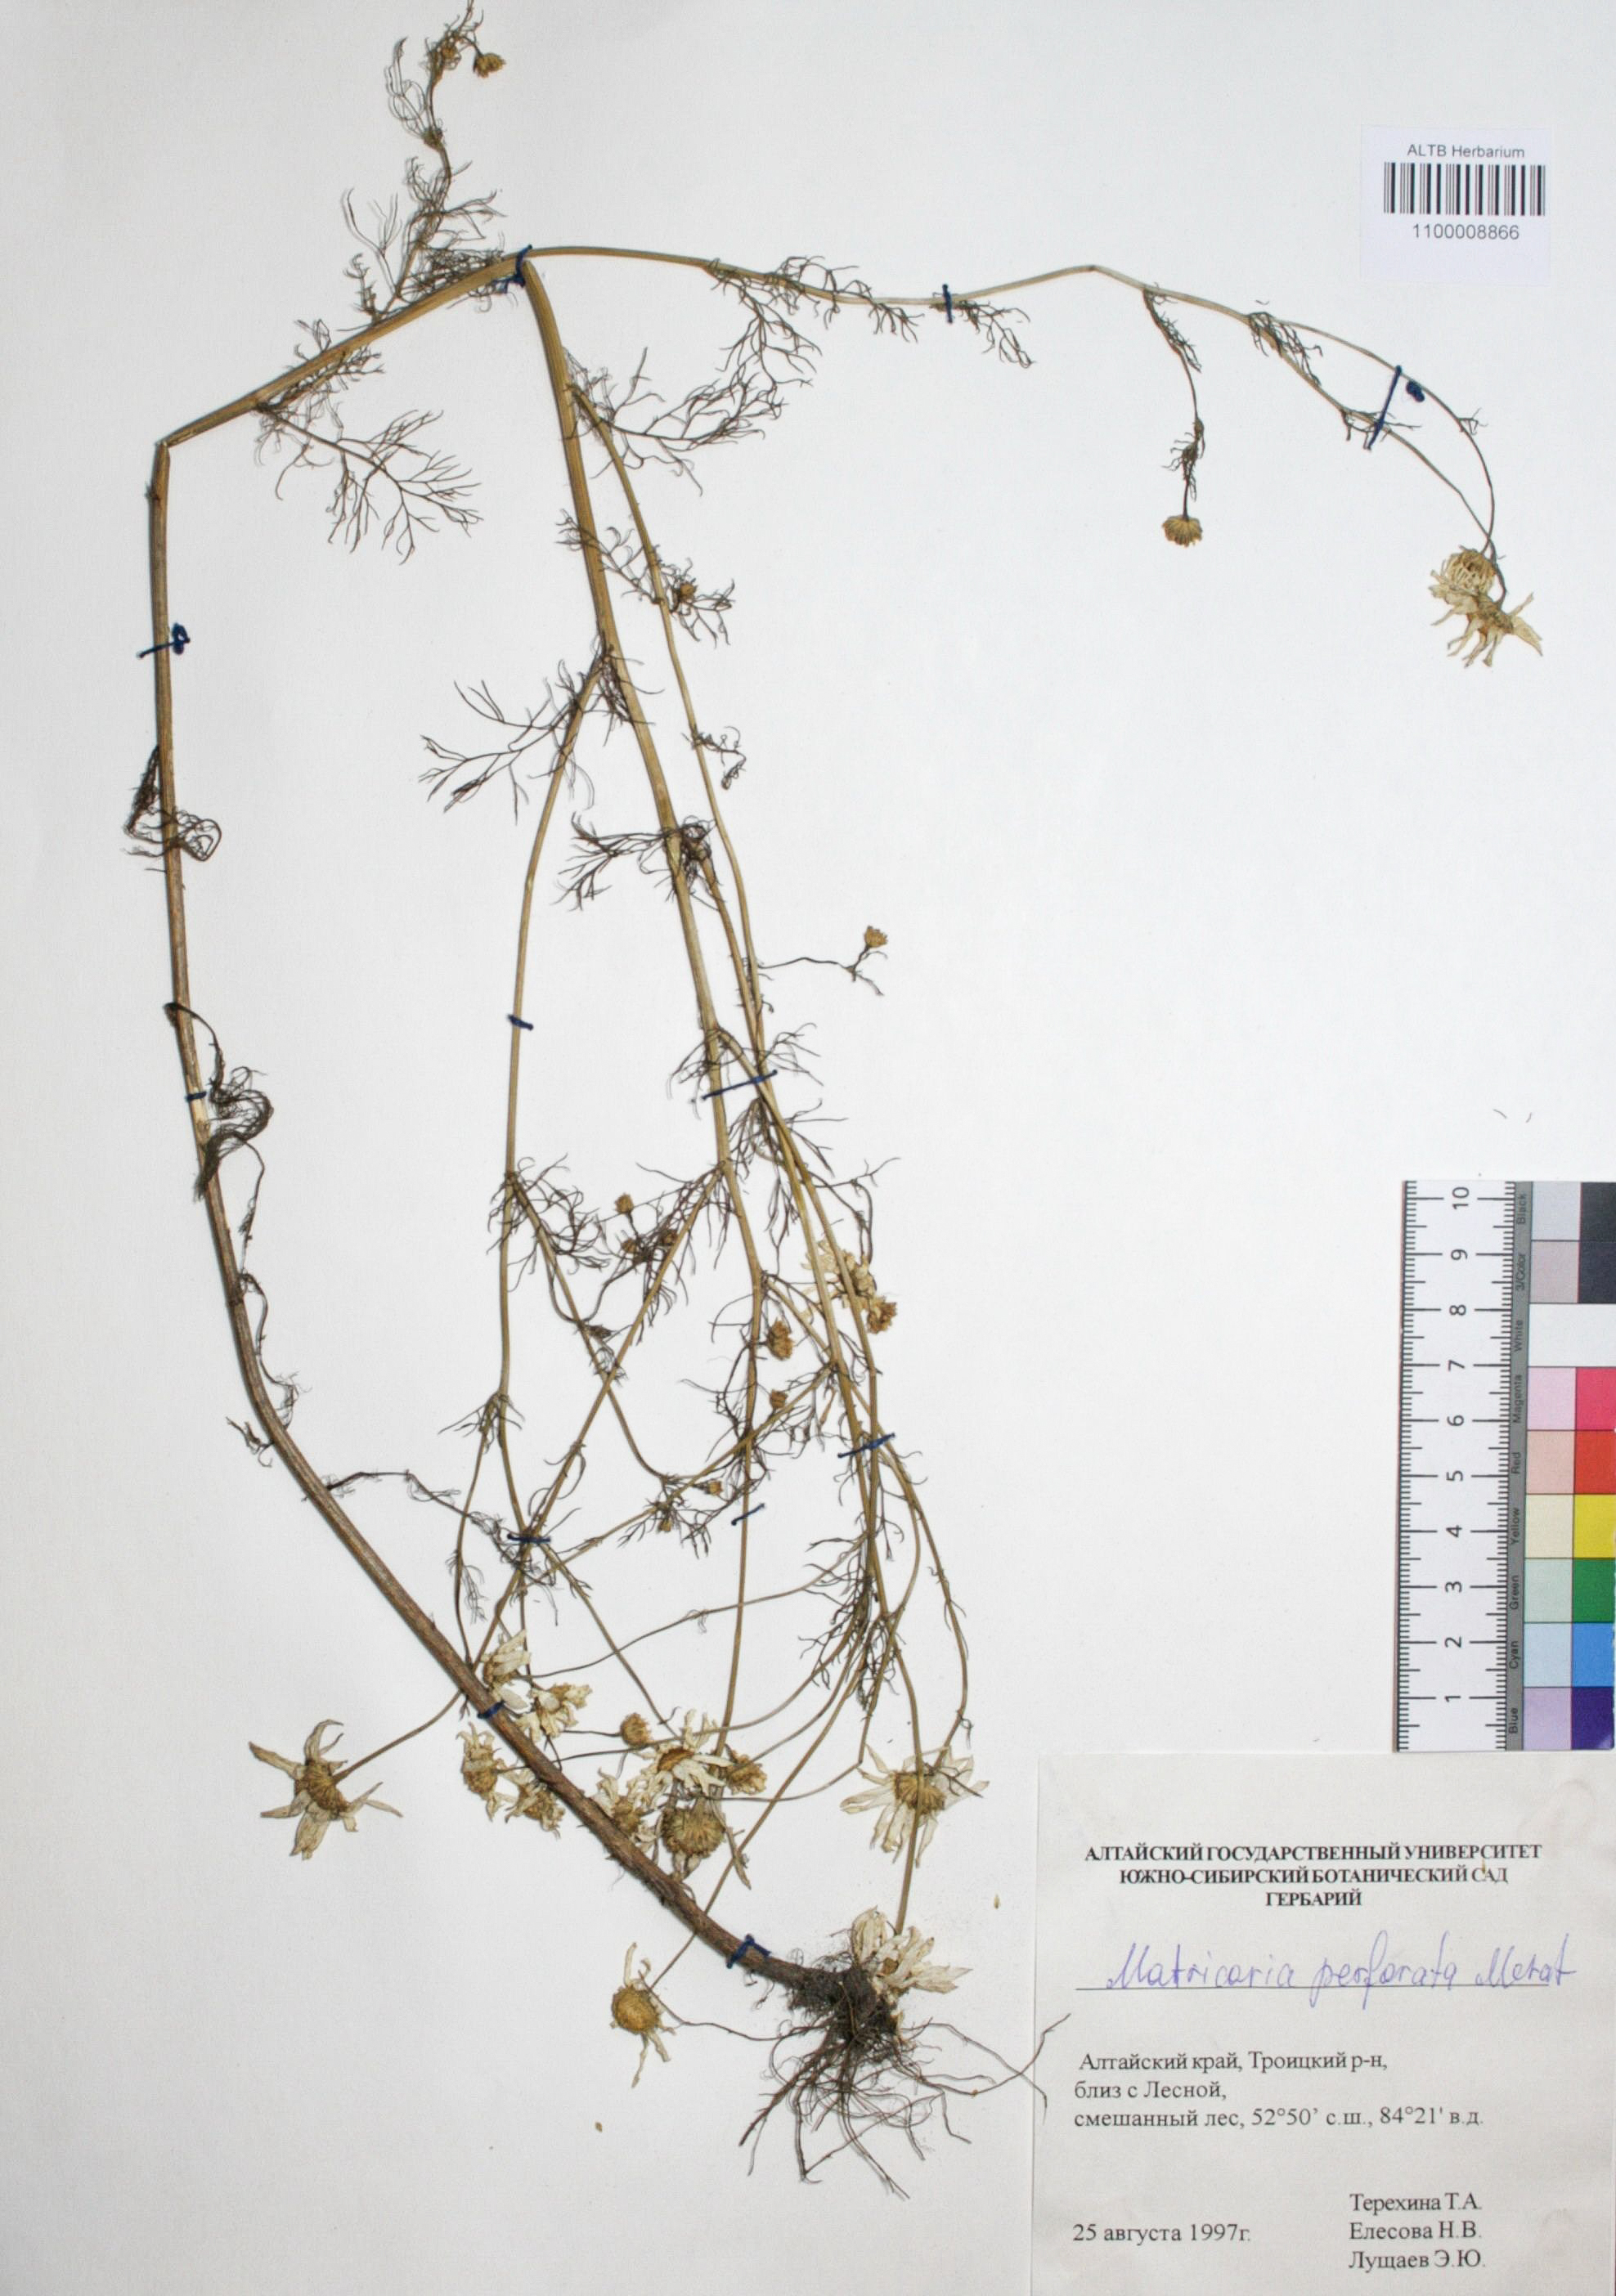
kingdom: Plantae
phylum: Tracheophyta
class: Magnoliopsida
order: Asterales
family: Asteraceae
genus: Tripleurospermum
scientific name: Tripleurospermum inodorum
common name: Scentless mayweed
